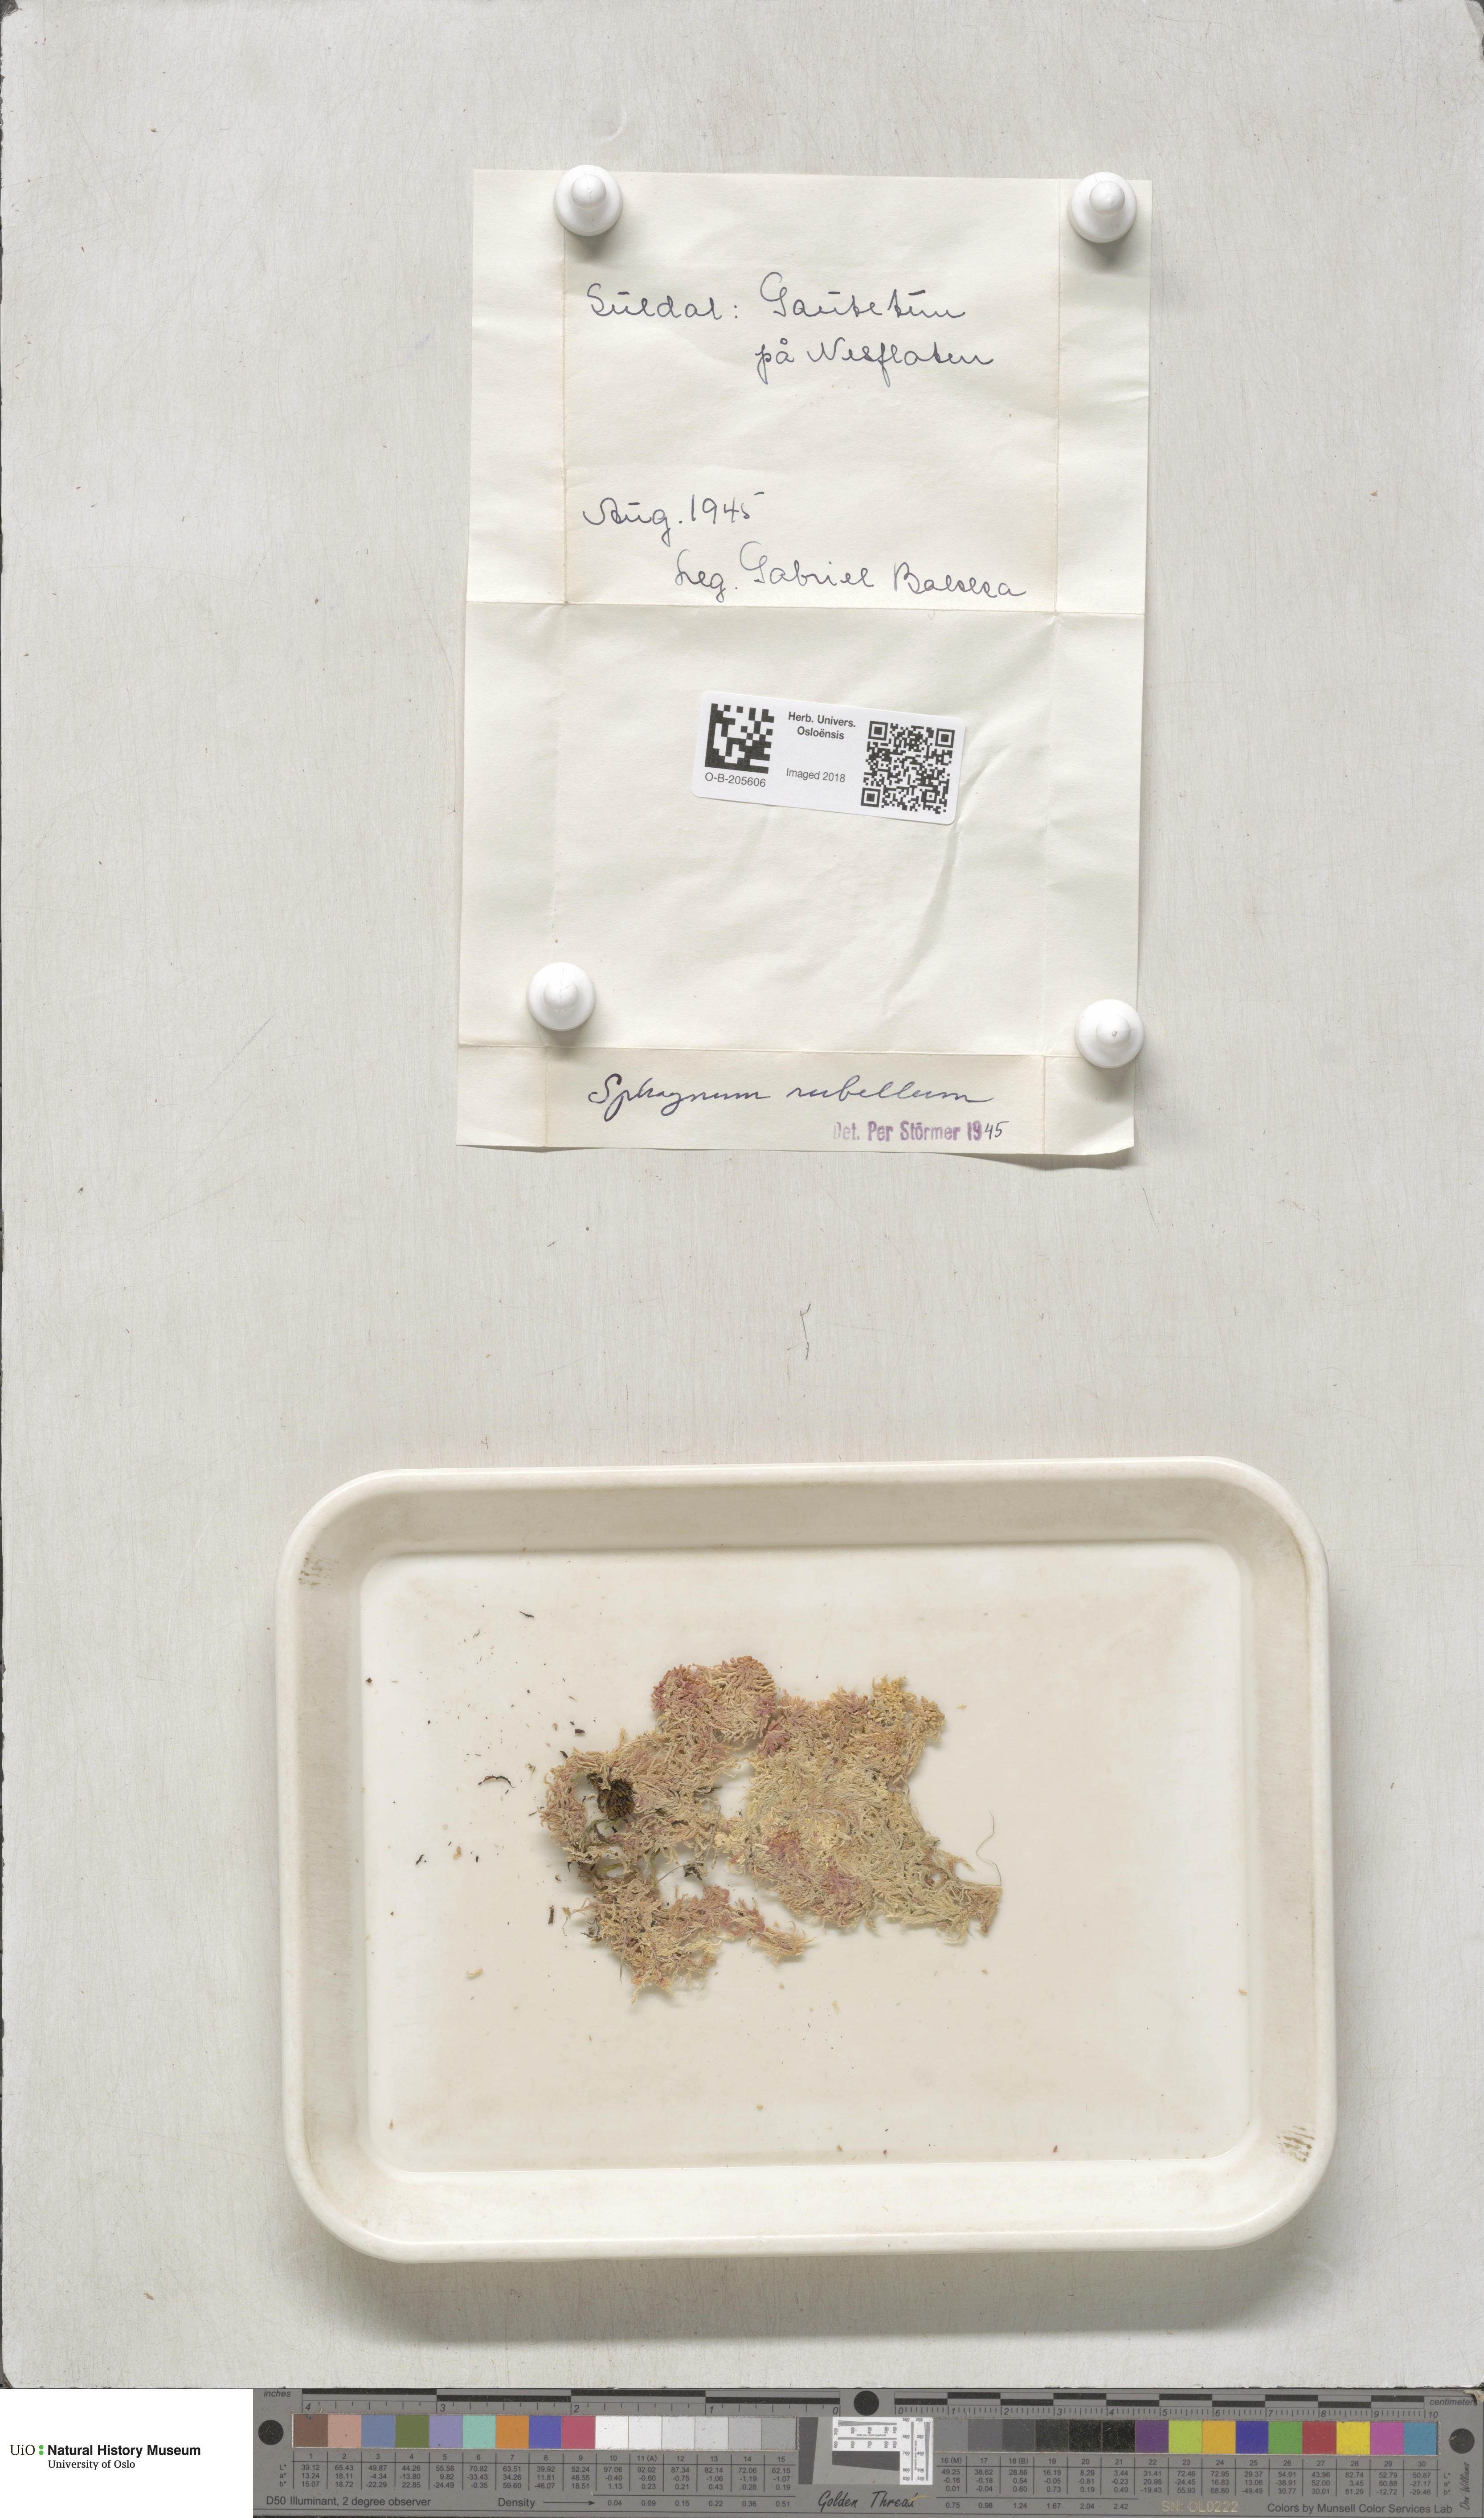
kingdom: Plantae
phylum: Bryophyta
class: Sphagnopsida
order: Sphagnales
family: Sphagnaceae
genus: Sphagnum
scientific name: Sphagnum rubellum
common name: Red peat moss
